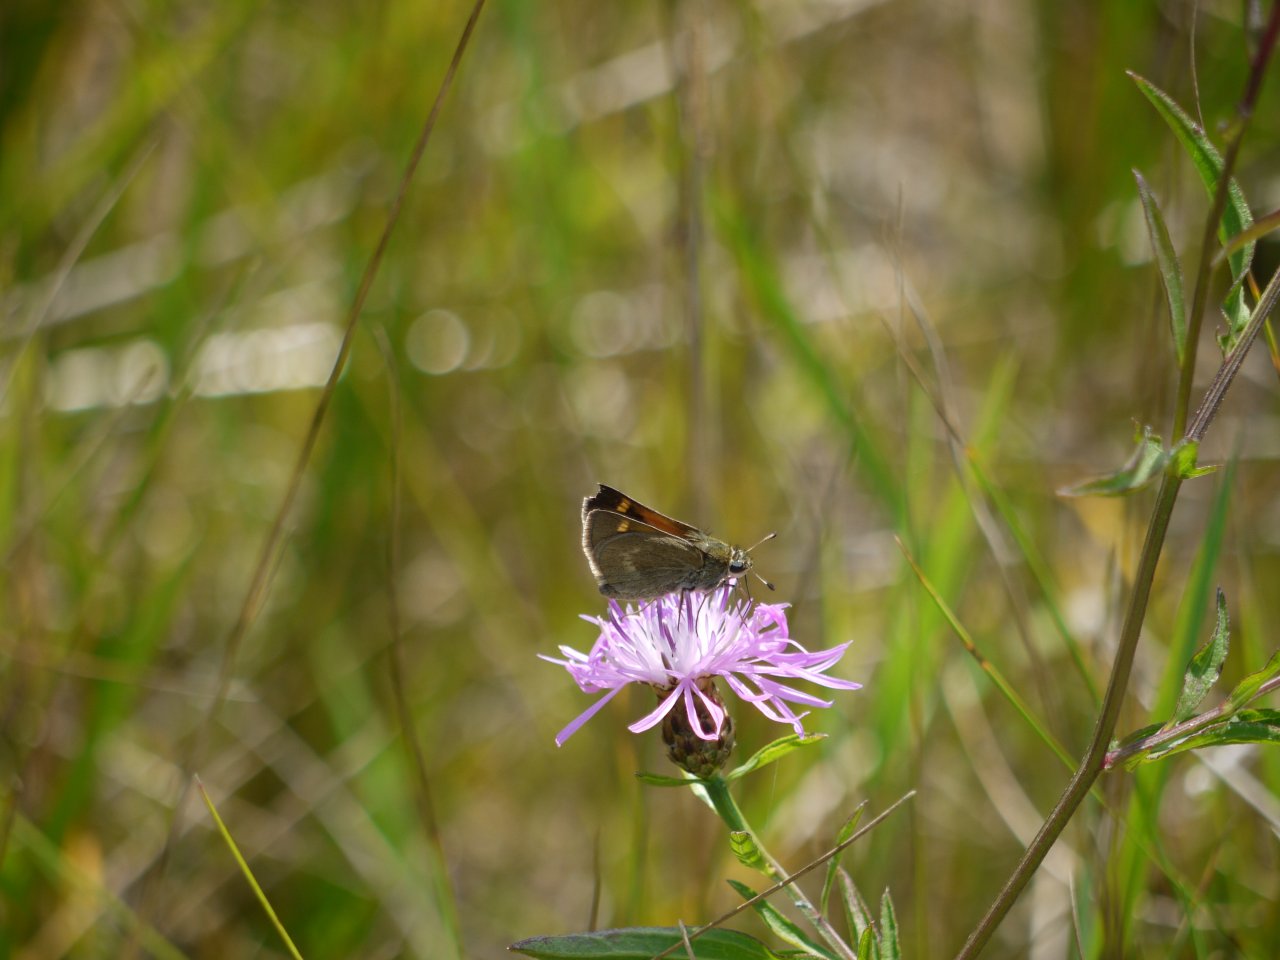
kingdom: Animalia
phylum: Arthropoda
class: Insecta
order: Lepidoptera
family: Hesperiidae
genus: Polites
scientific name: Polites themistocles
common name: Tawny-edged Skipper
